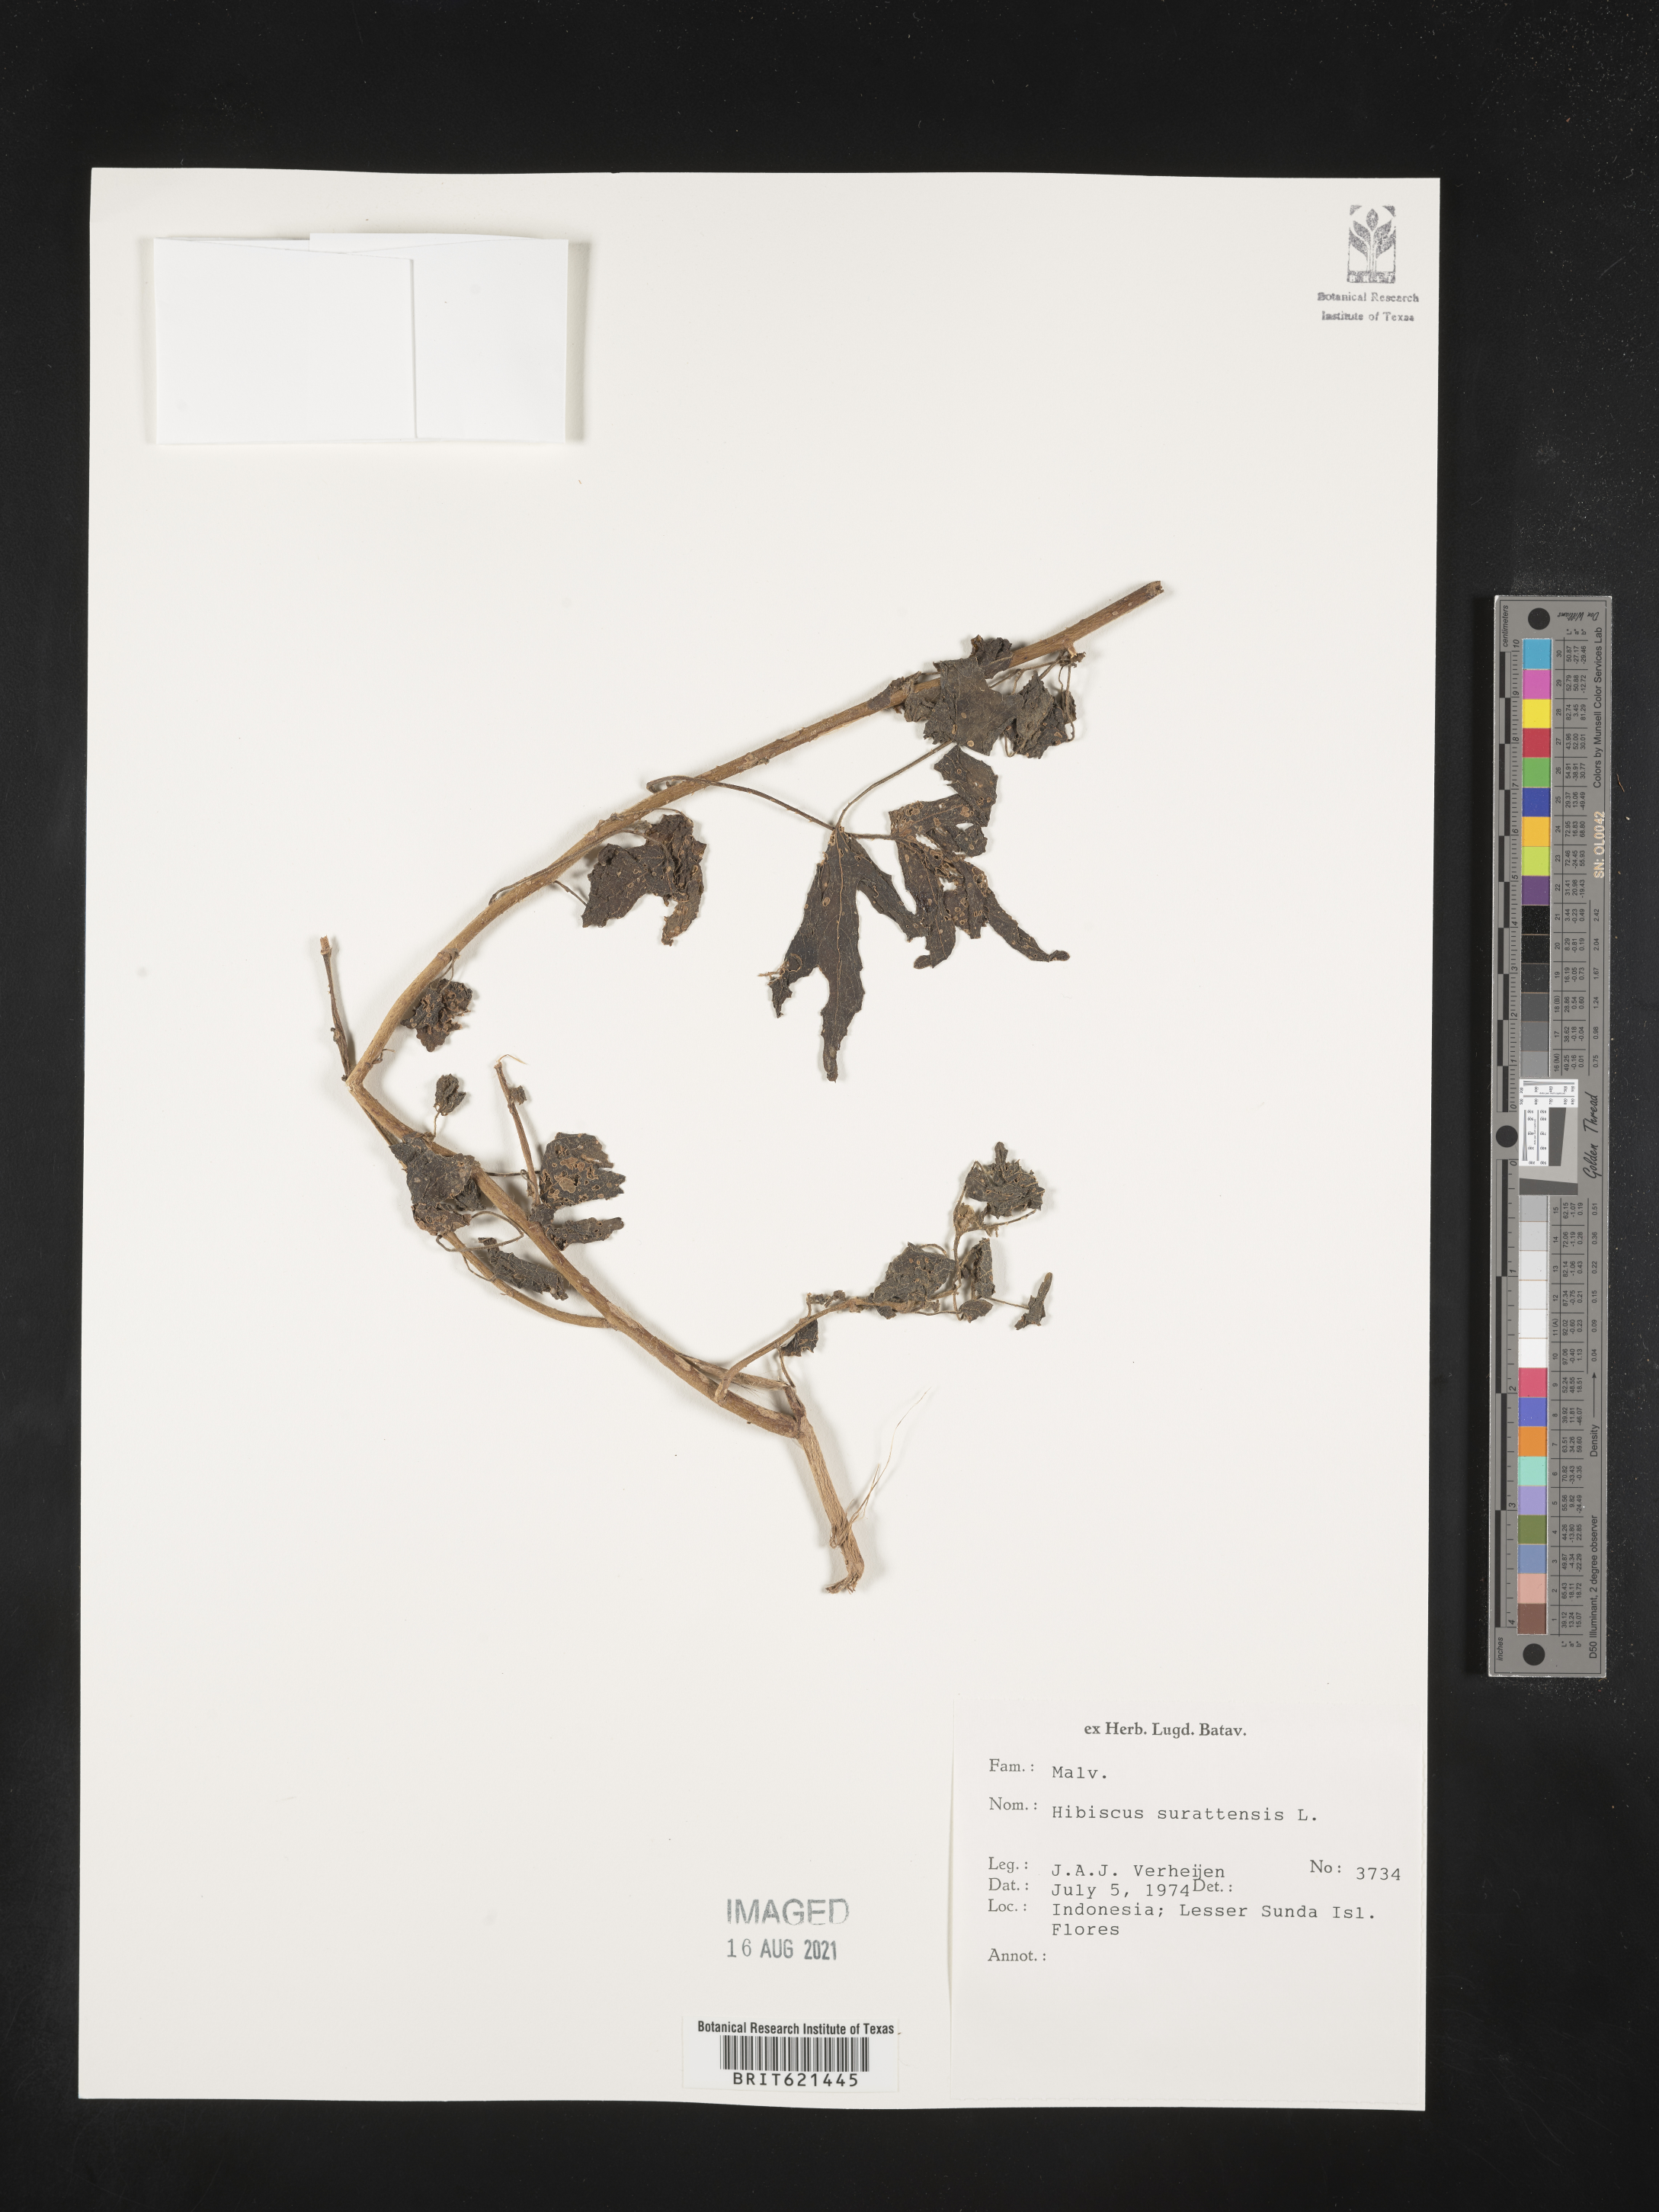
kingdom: Plantae
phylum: Tracheophyta
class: Magnoliopsida
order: Malvales
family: Malvaceae
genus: Hibiscus
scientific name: Hibiscus surattensis
